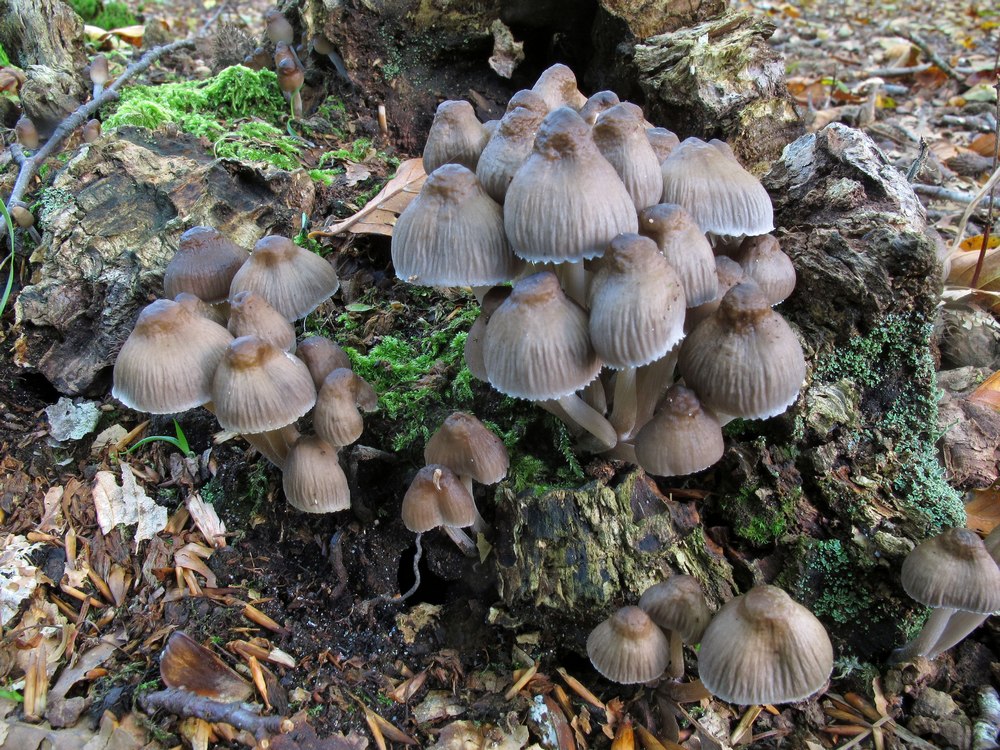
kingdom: Fungi
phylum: Basidiomycota
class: Agaricomycetes
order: Agaricales
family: Mycenaceae
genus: Mycena
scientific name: Mycena inclinata
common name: nikkende huesvamp
